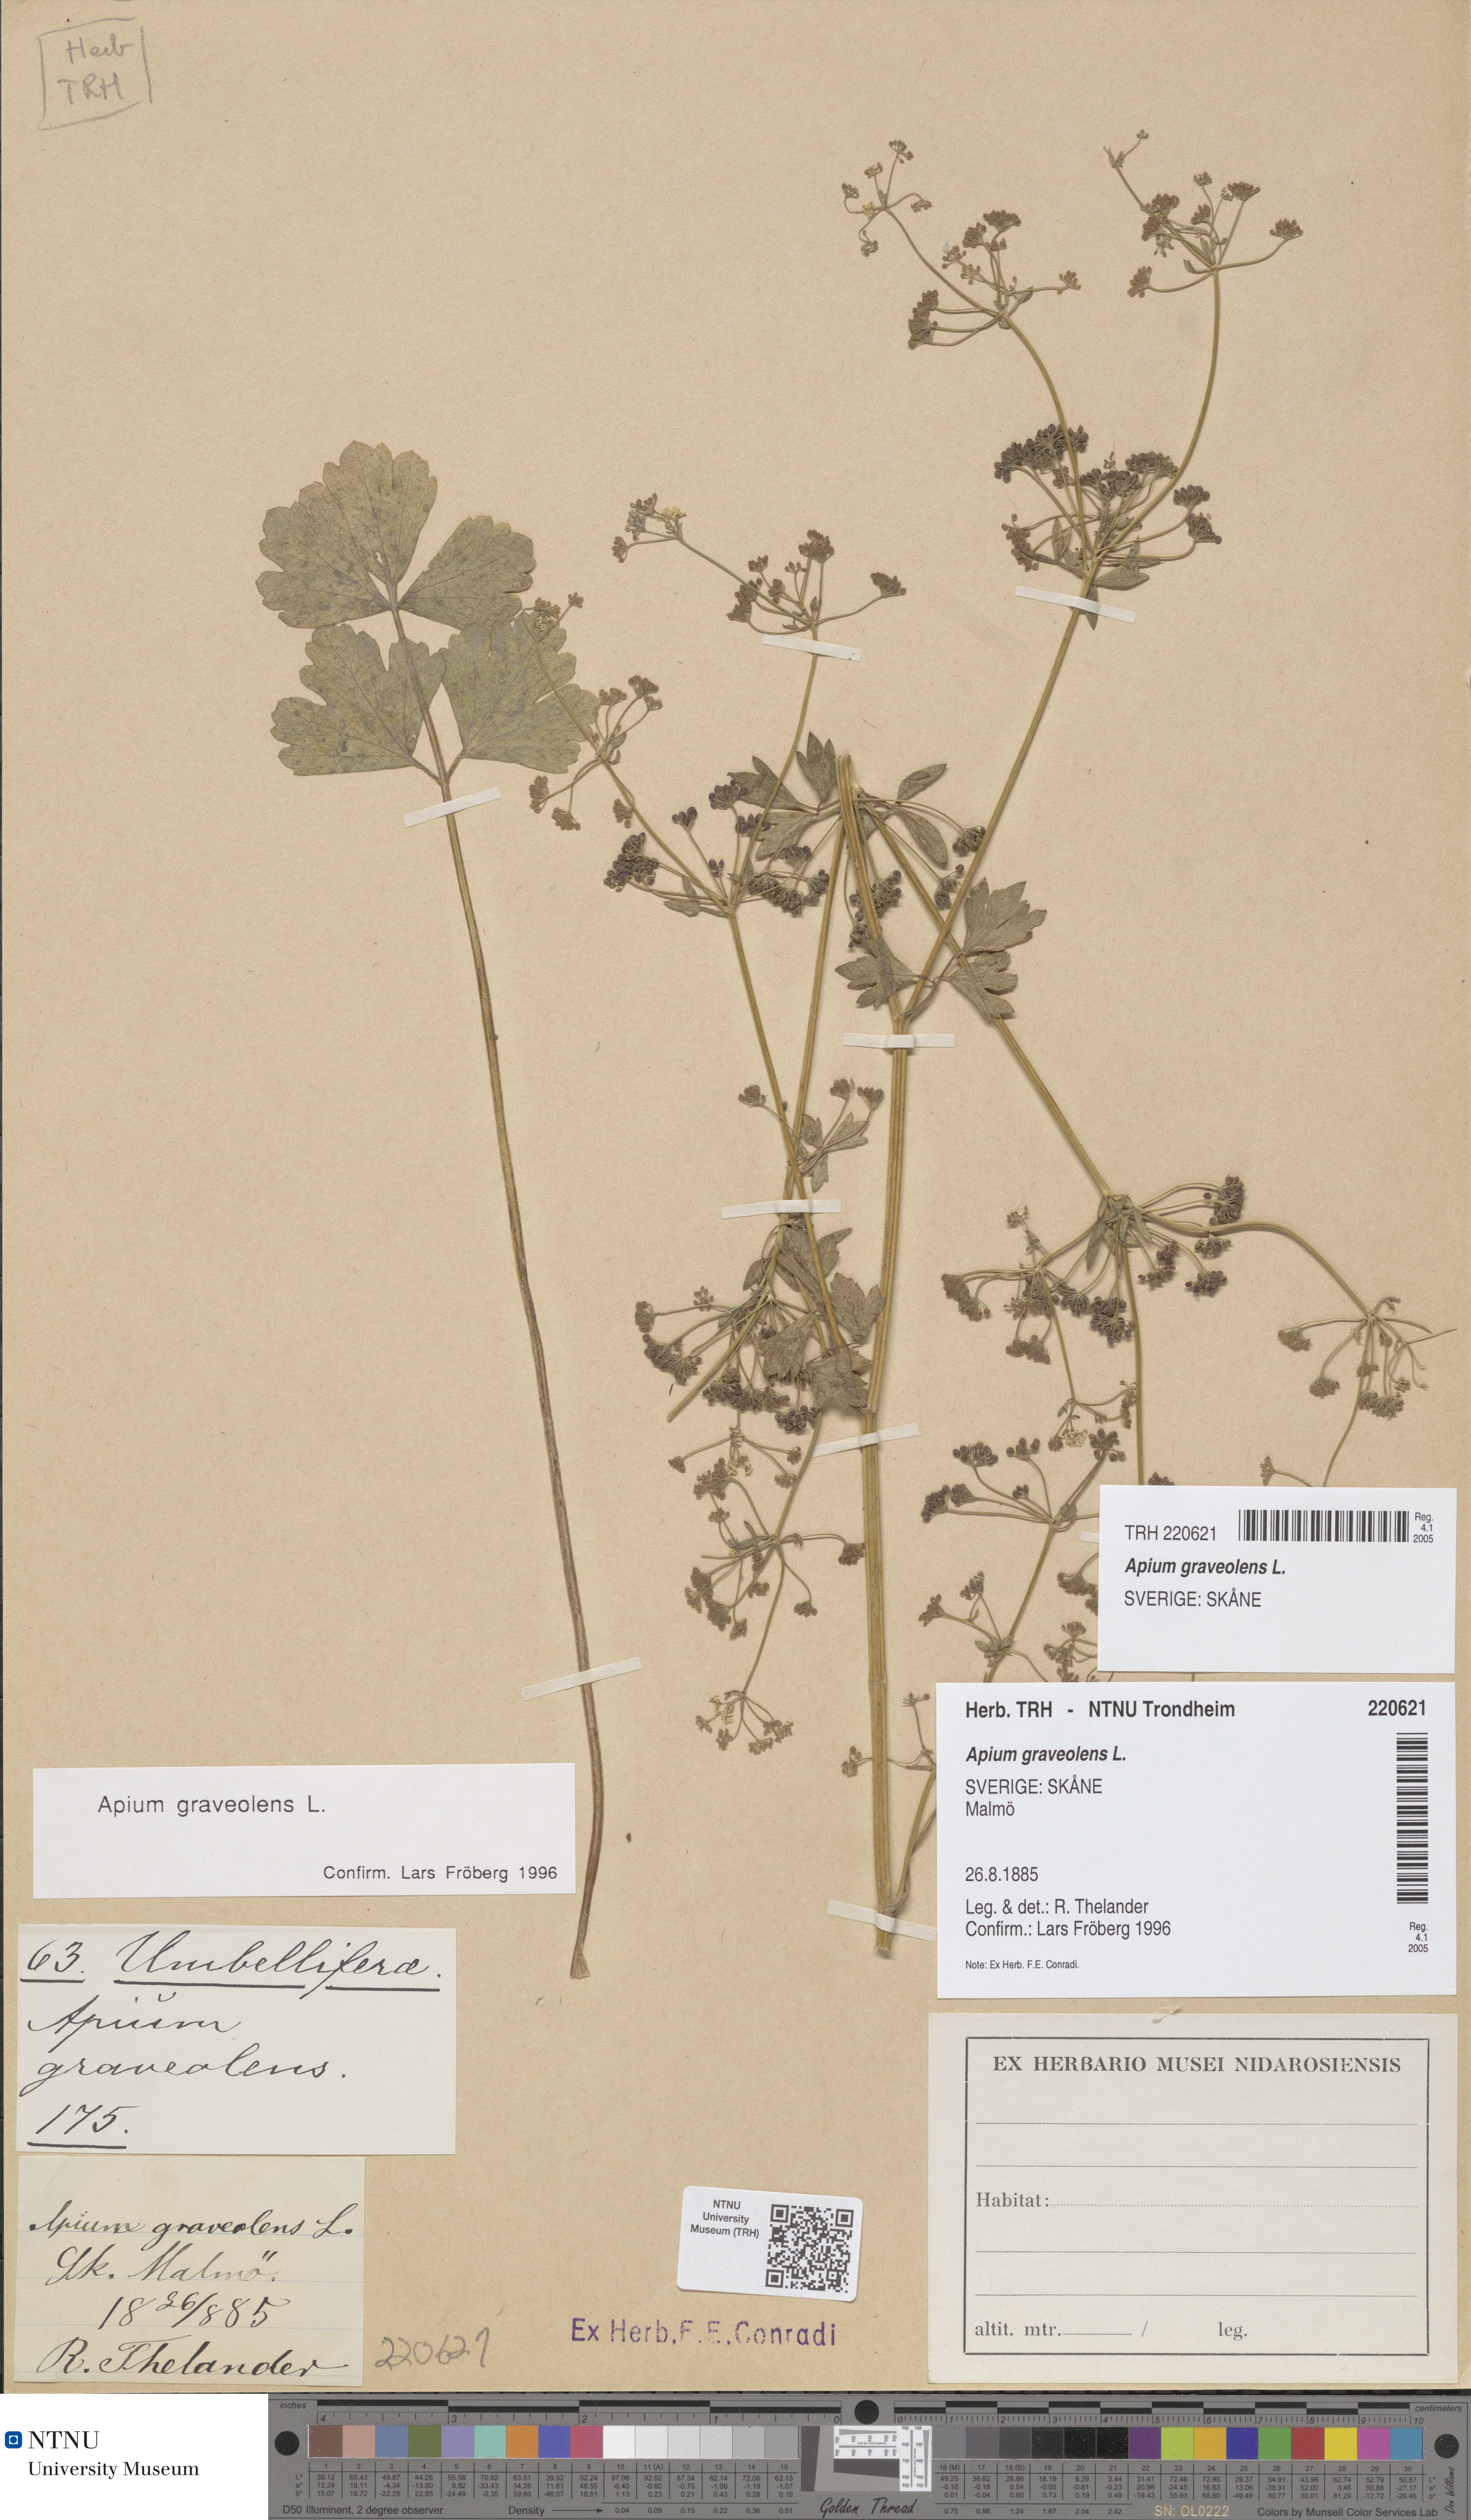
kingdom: Plantae
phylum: Tracheophyta
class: Magnoliopsida
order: Apiales
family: Apiaceae
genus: Apium
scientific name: Apium graveolens
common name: Wild celery
